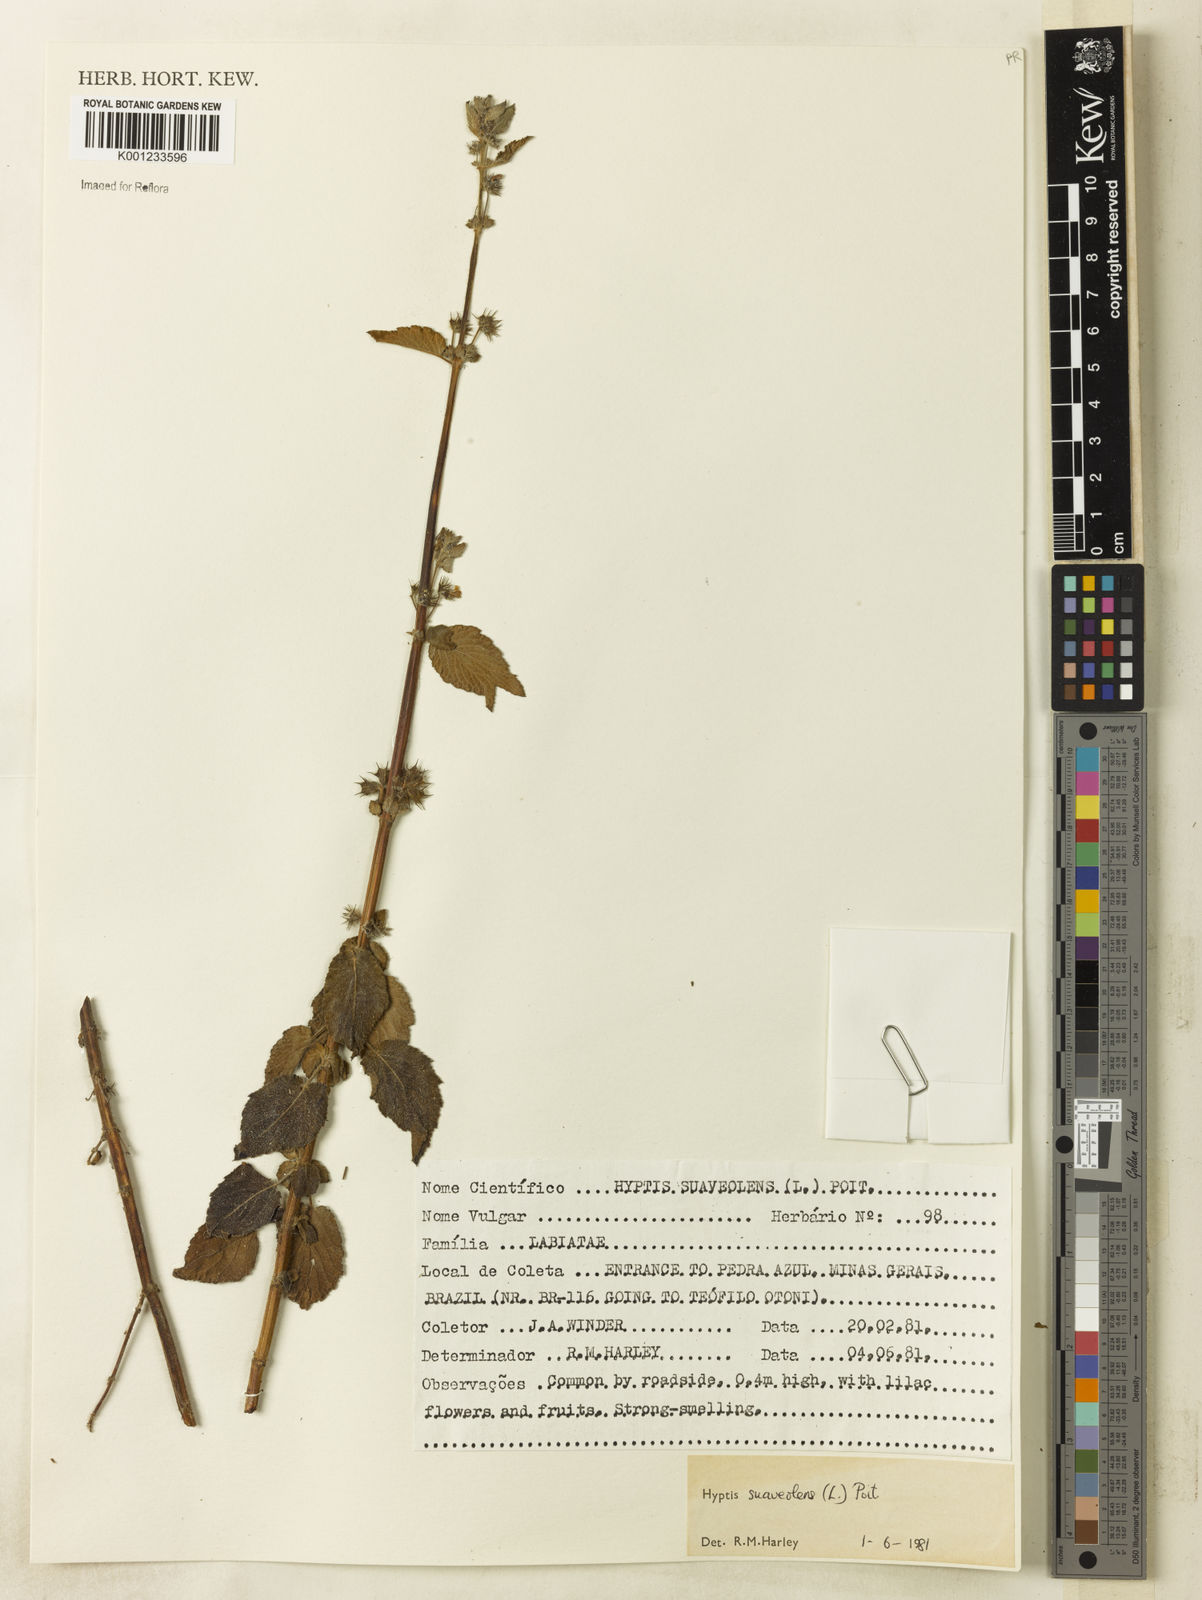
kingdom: Plantae
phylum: Tracheophyta
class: Magnoliopsida
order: Lamiales
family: Lamiaceae
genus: Mesosphaerum
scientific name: Mesosphaerum suaveolens
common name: Pignut
